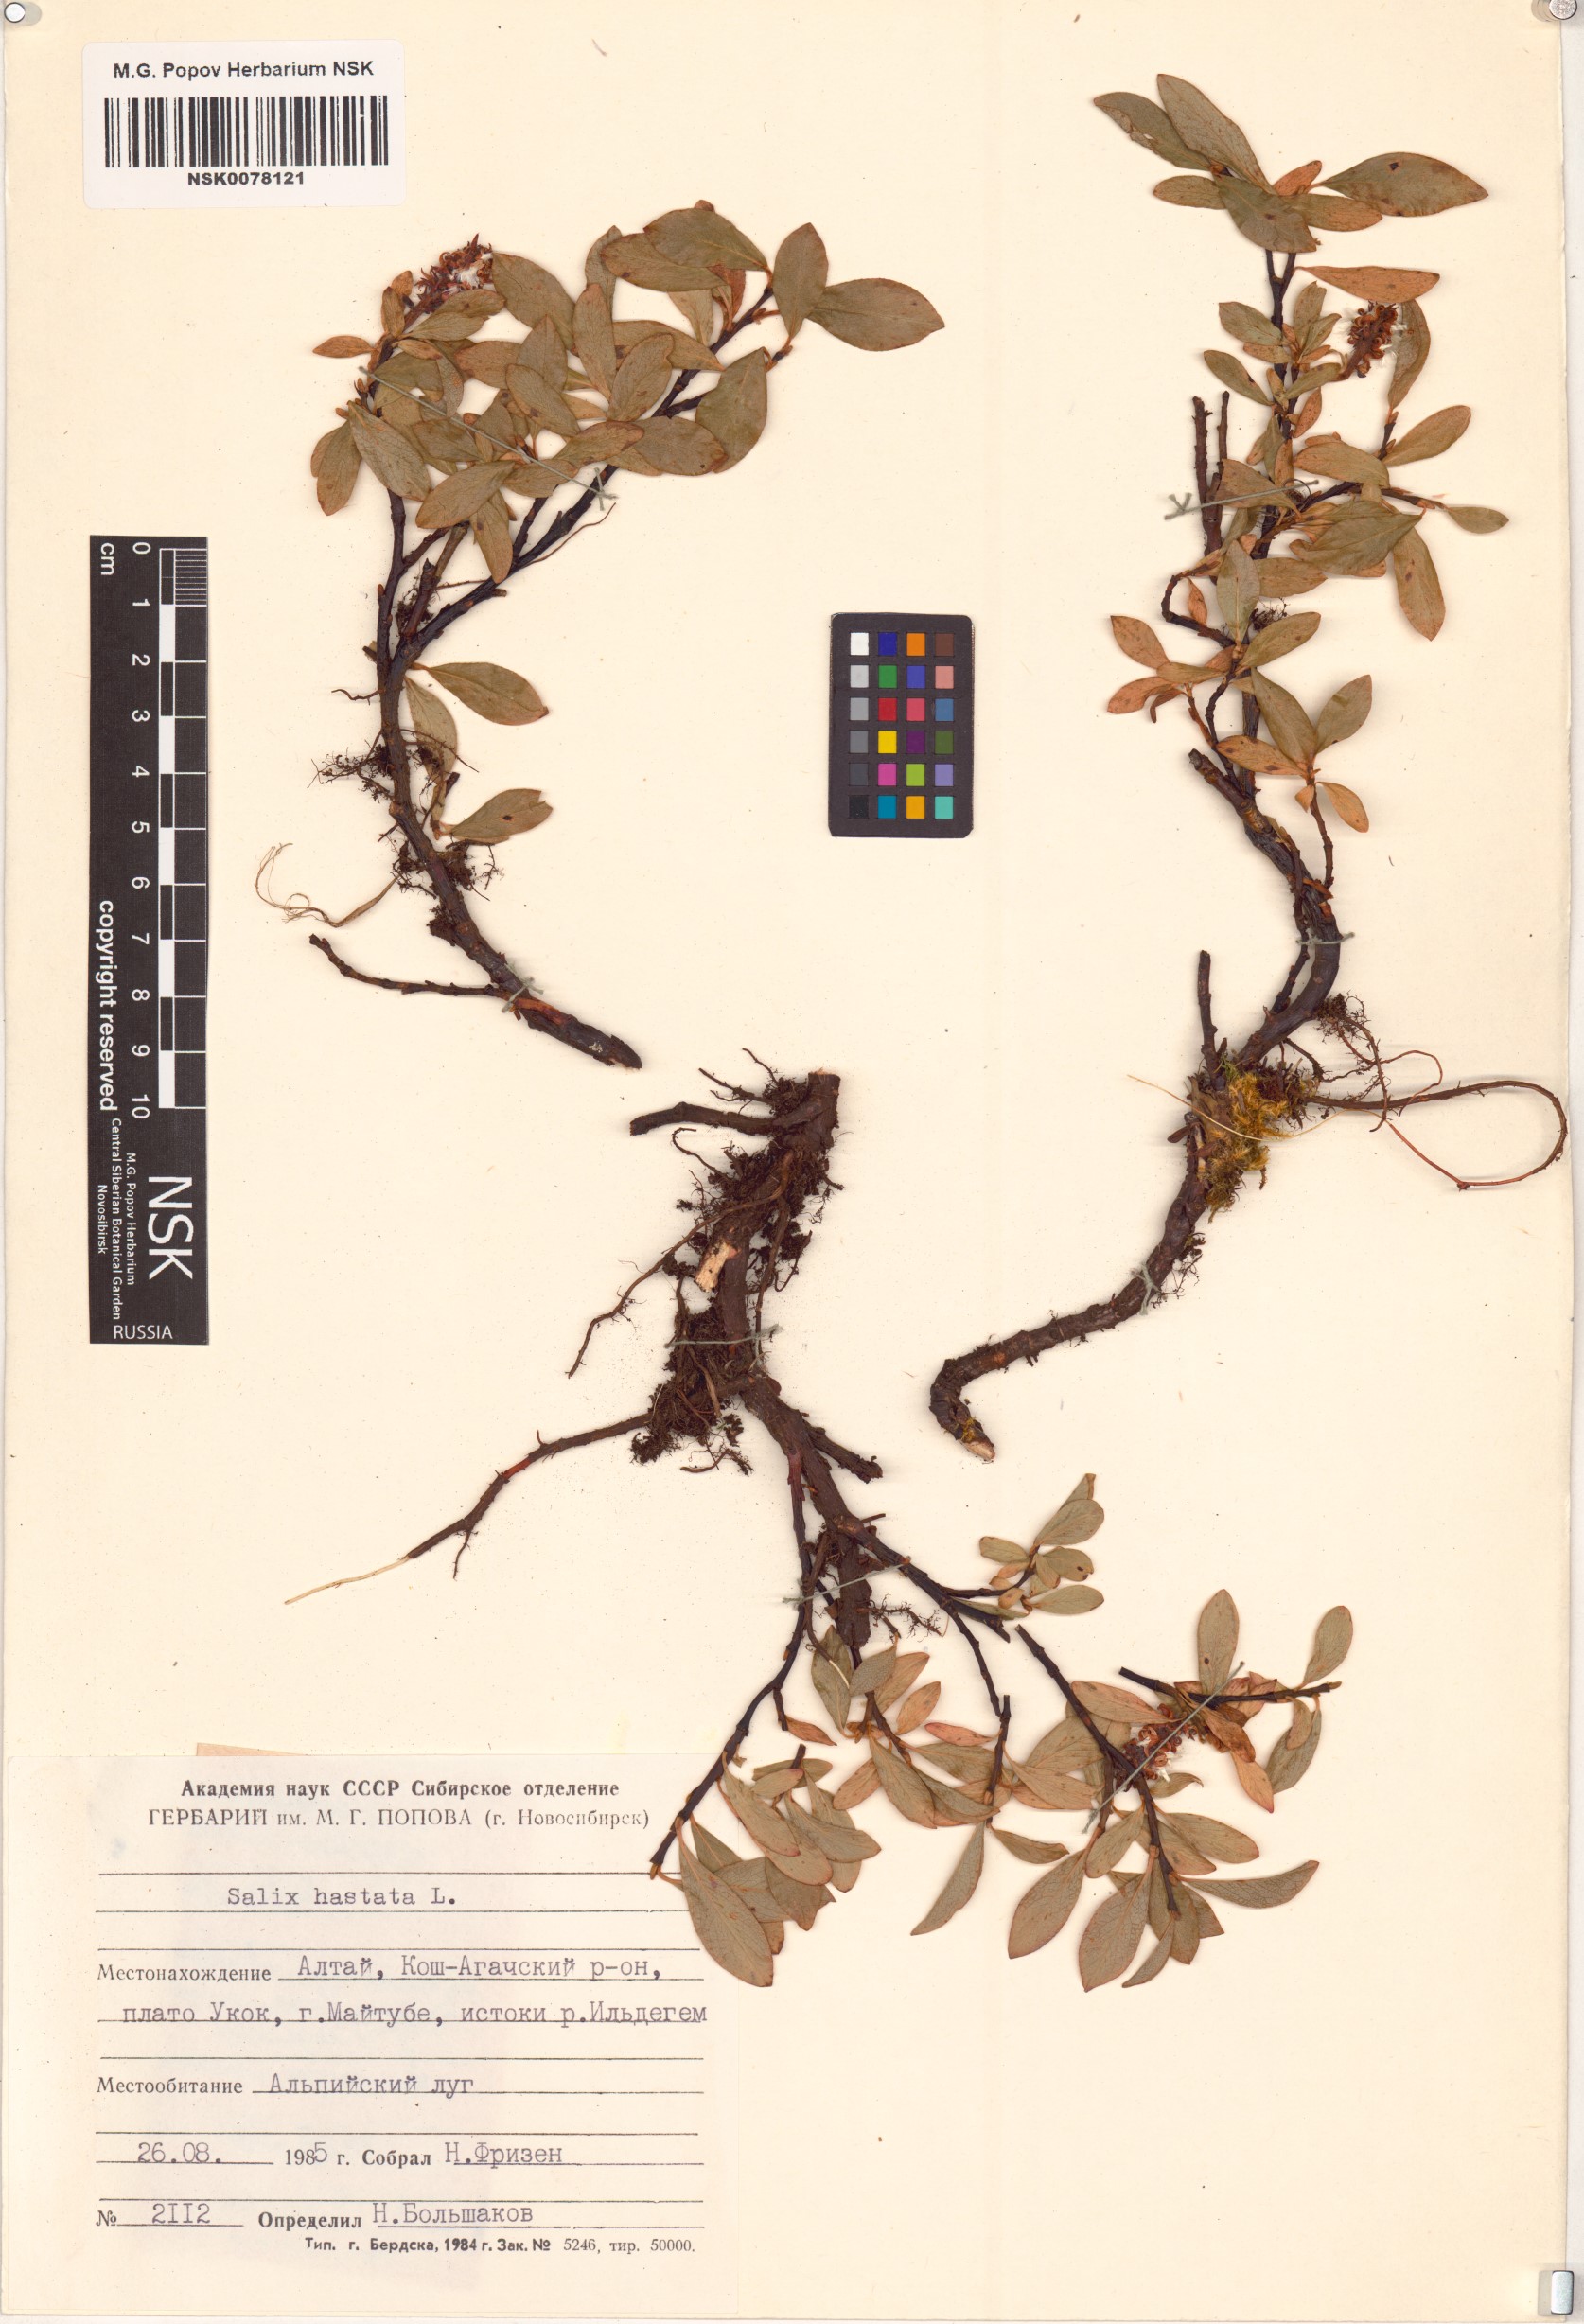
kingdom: Plantae
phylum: Tracheophyta
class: Magnoliopsida
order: Malpighiales
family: Salicaceae
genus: Salix
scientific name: Salix hastata
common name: Halberd willow
